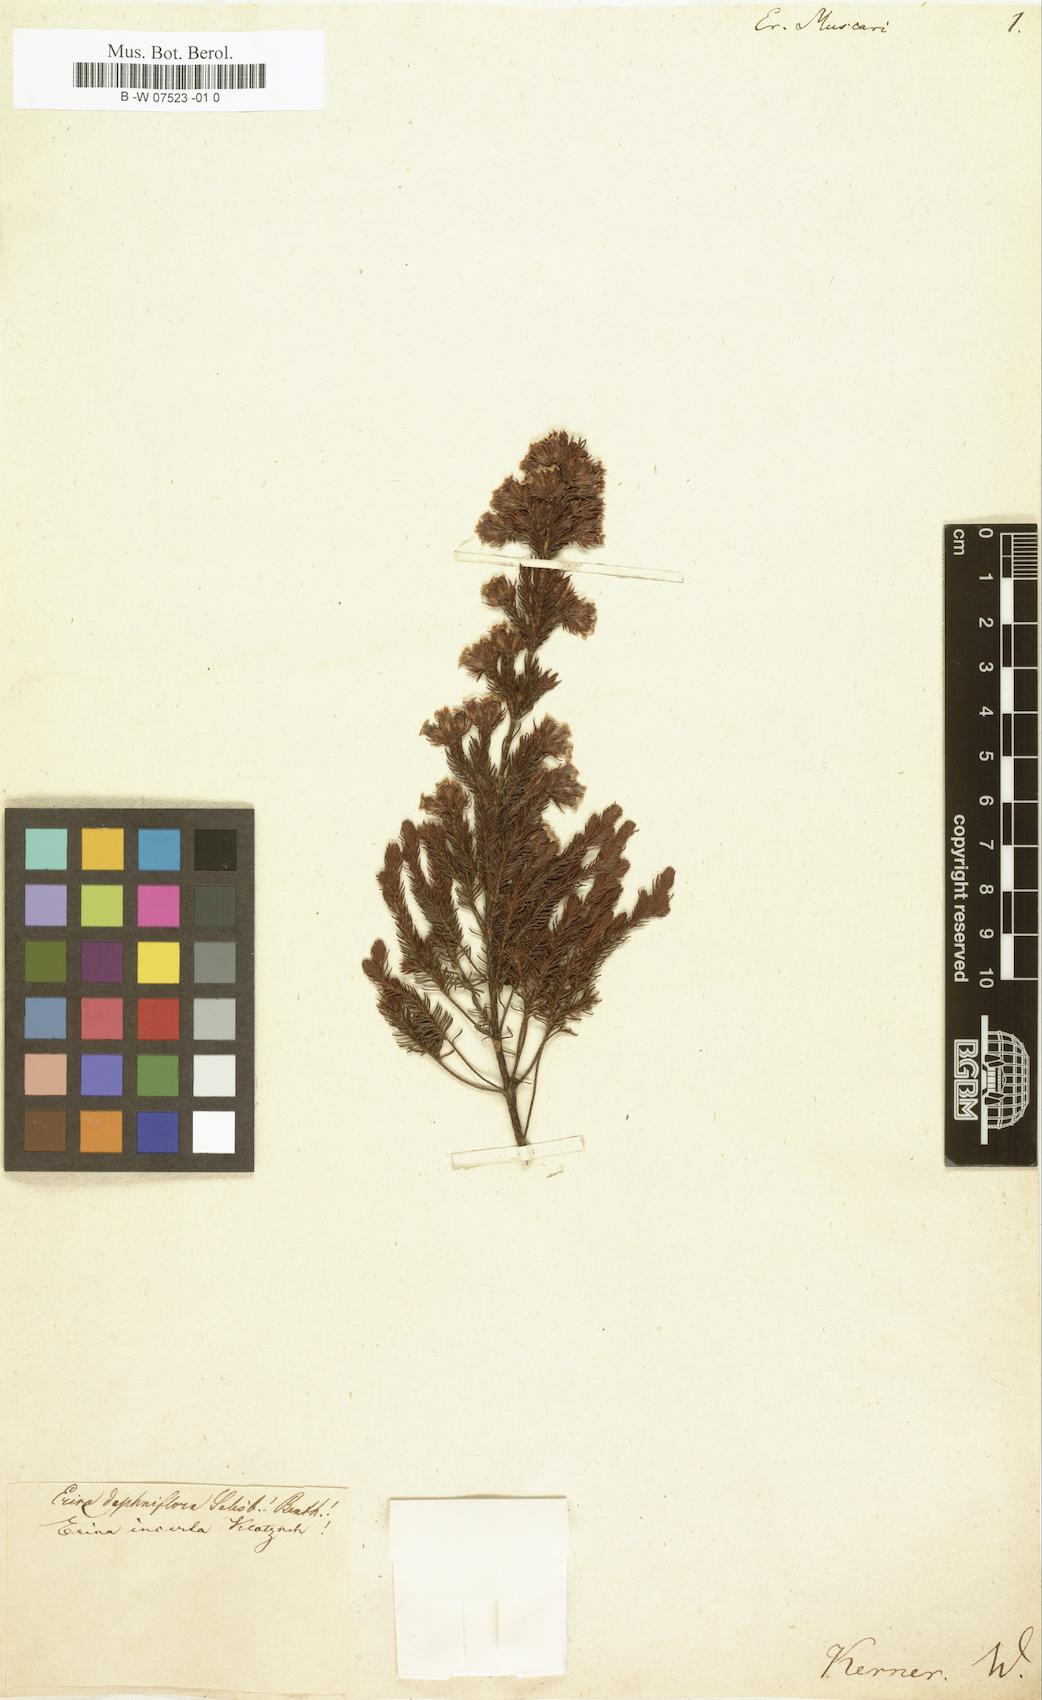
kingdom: Plantae
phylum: Tracheophyta
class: Magnoliopsida
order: Ericales
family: Ericaceae
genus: Erica
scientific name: Erica daphniflora
